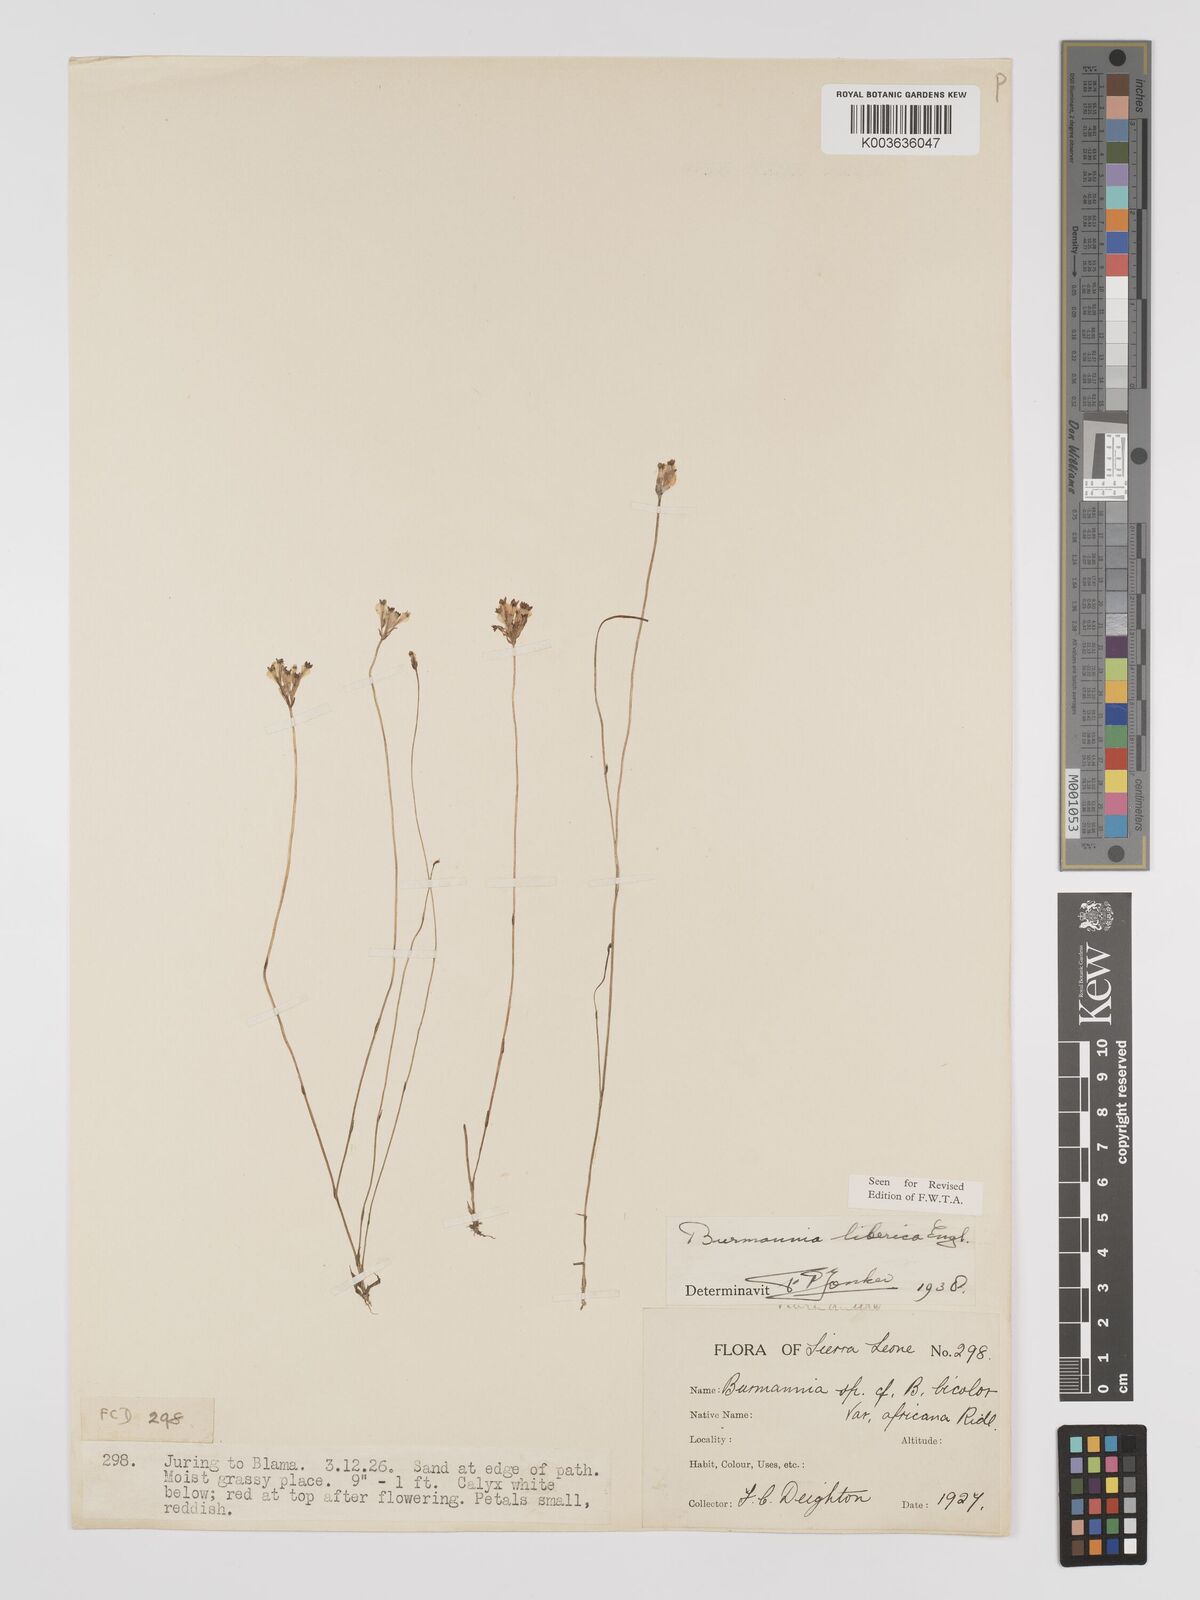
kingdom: Plantae
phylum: Tracheophyta
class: Liliopsida
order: Dioscoreales
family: Burmanniaceae
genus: Burmannia
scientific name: Burmannia madagascariensis
